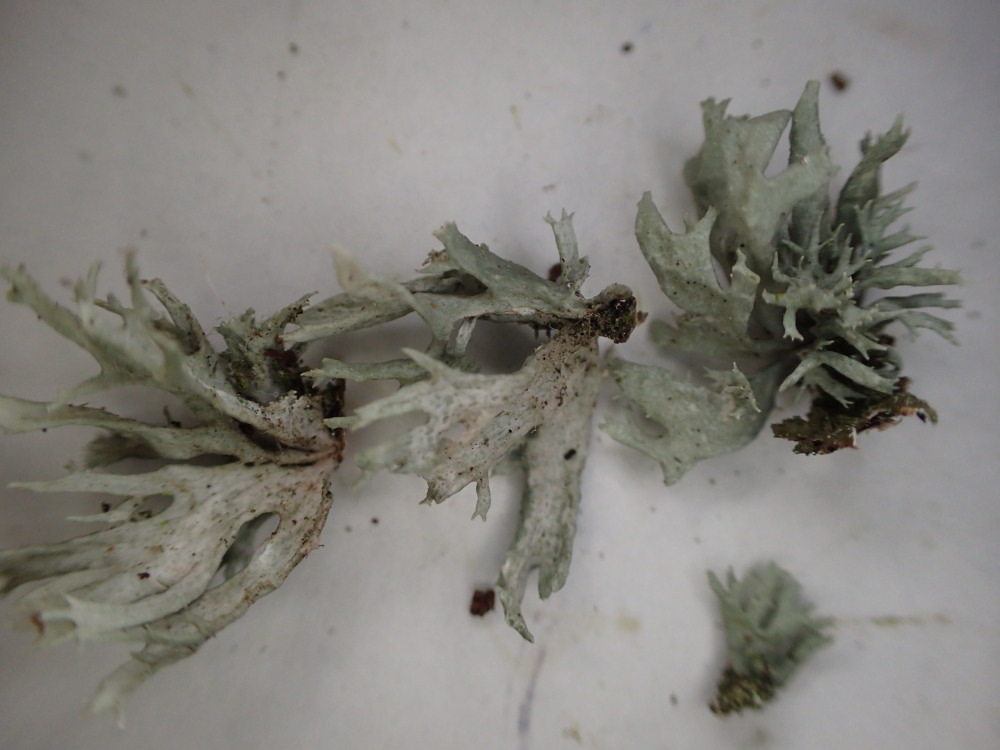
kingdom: Fungi
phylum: Ascomycota
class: Lecanoromycetes
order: Lecanorales
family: Parmeliaceae
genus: Evernia
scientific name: Evernia prunastri
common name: almindelig slåenlav
